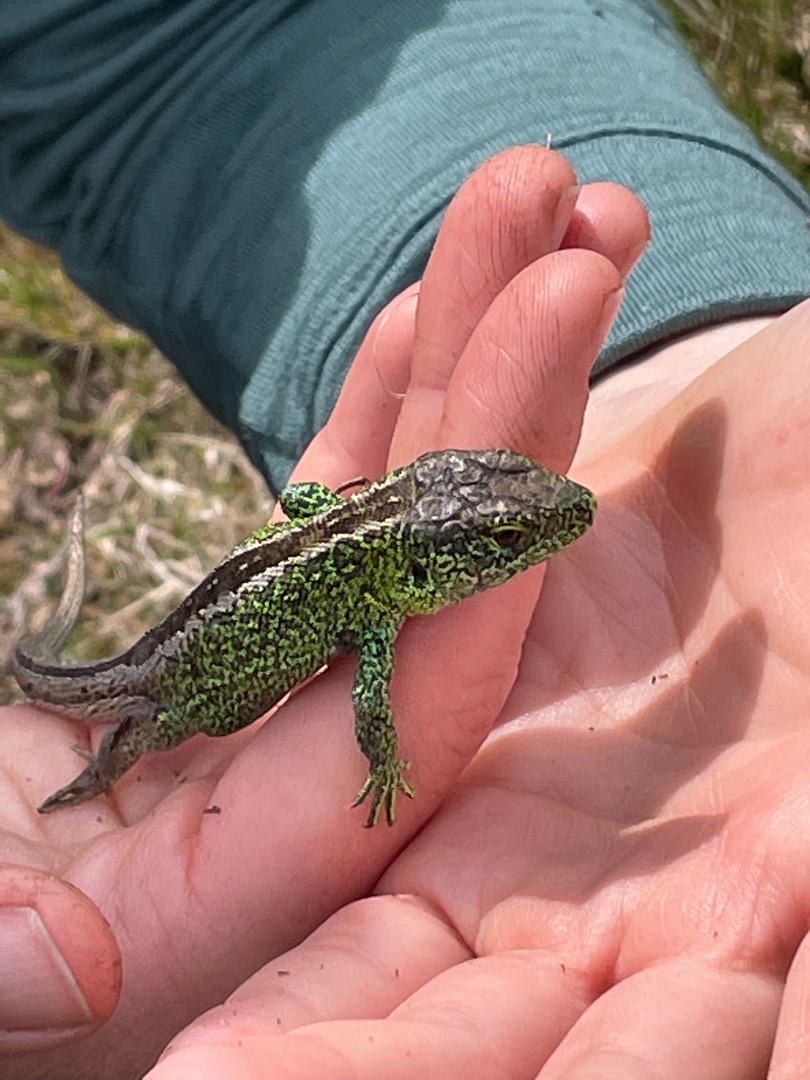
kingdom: Animalia
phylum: Chordata
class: Squamata
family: Lacertidae
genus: Lacerta
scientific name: Lacerta agilis
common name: Markfirben
